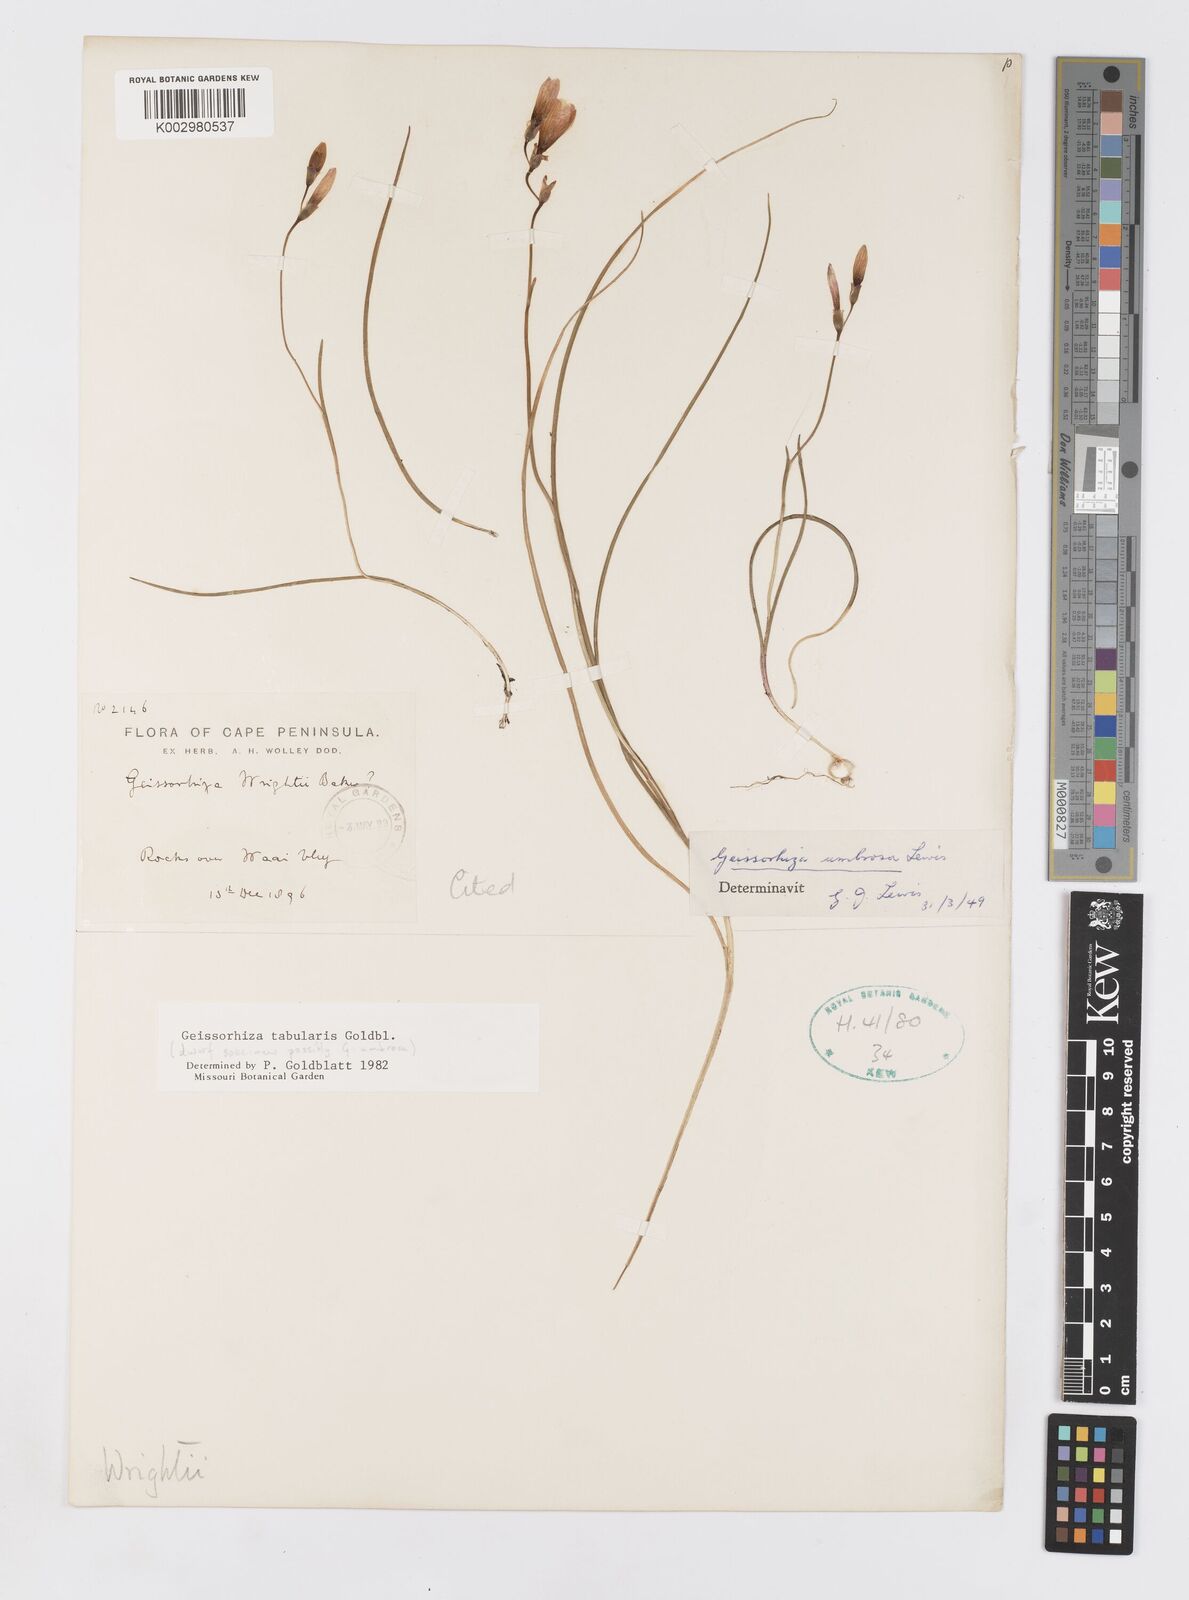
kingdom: Plantae
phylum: Tracheophyta
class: Liliopsida
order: Asparagales
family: Iridaceae
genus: Geissorhiza
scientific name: Geissorhiza tabularis
